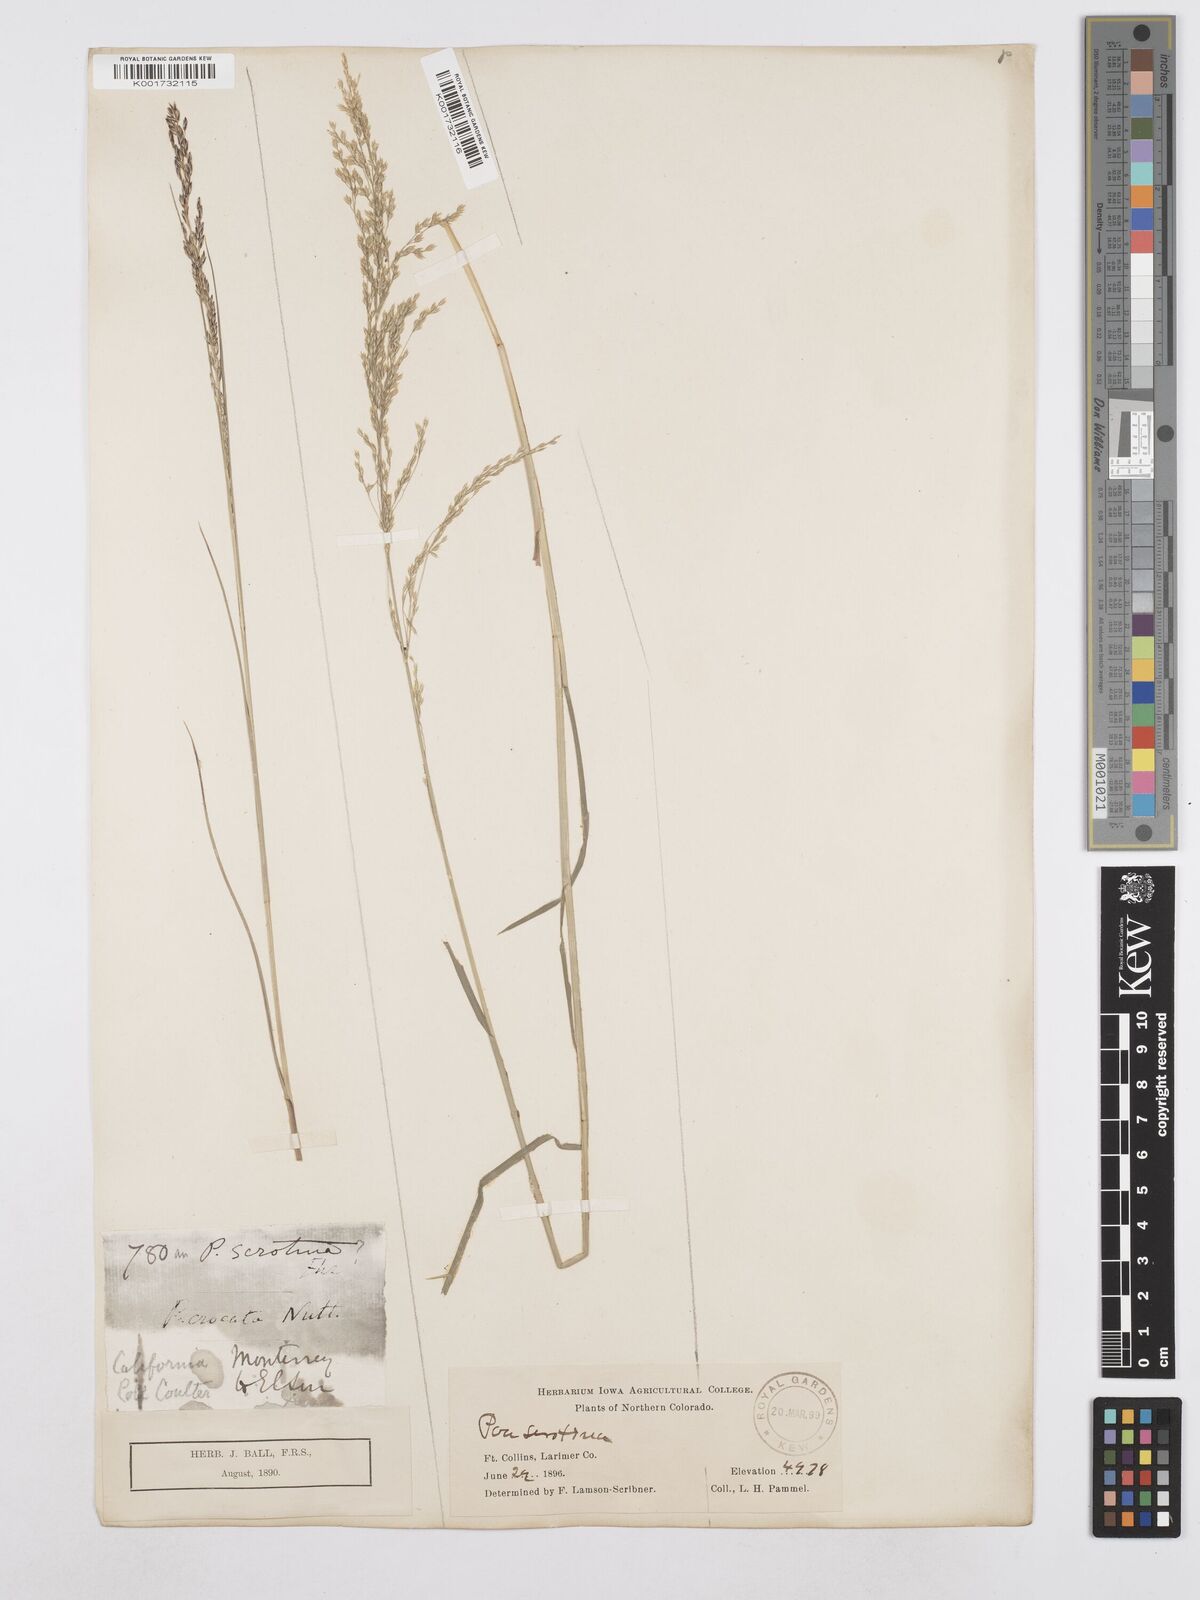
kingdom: Plantae
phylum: Tracheophyta
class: Liliopsida
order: Poales
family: Poaceae
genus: Poa
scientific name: Poa palustris
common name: Swamp meadow-grass
